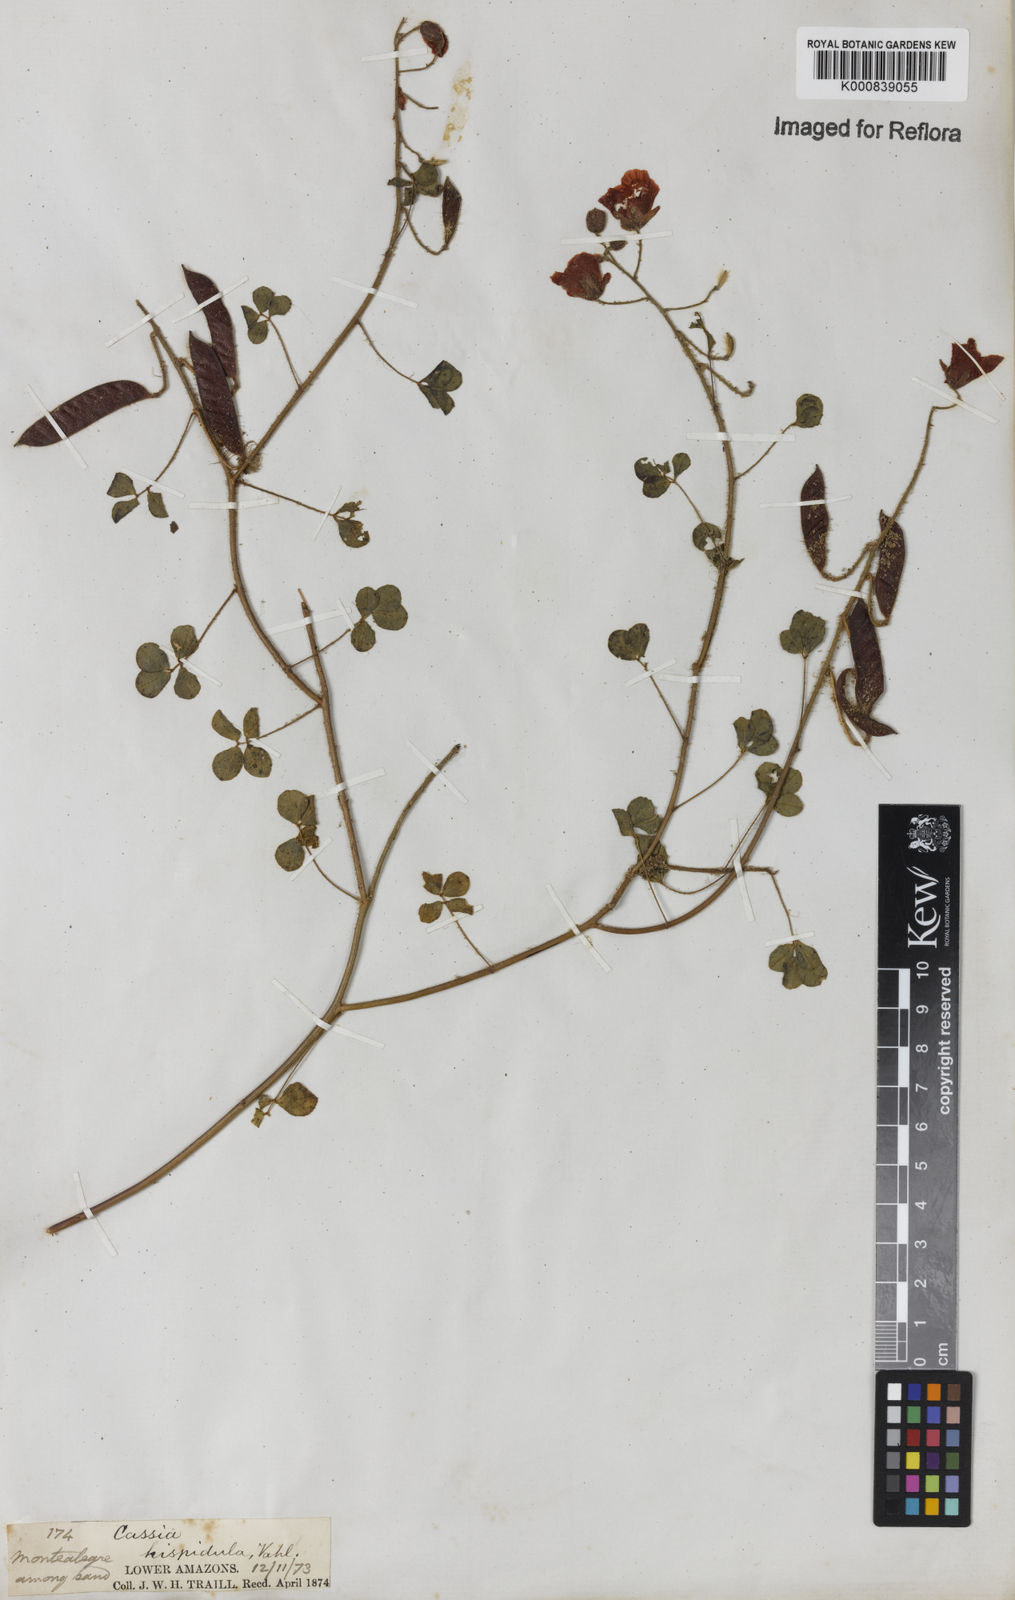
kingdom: Plantae
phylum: Tracheophyta
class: Magnoliopsida
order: Fabales
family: Fabaceae
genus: Chamaecrista
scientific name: Chamaecrista hispidula
